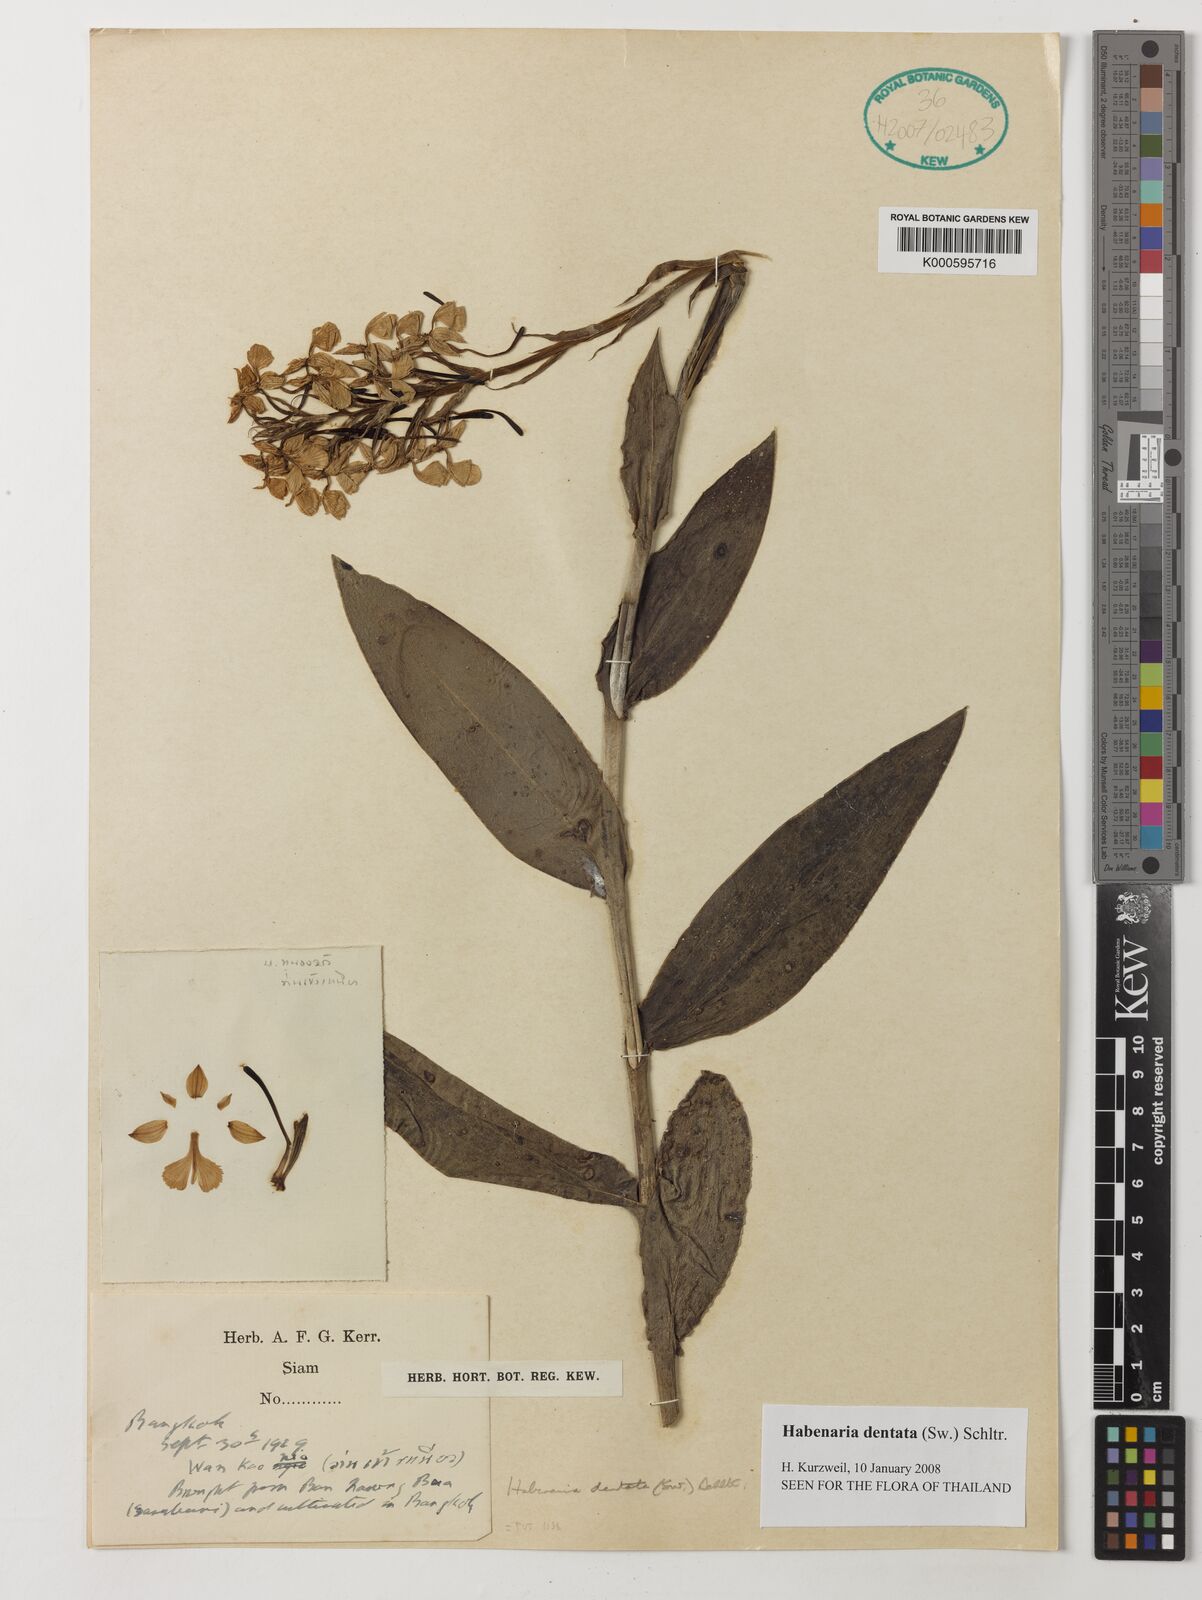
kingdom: Plantae
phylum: Tracheophyta
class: Liliopsida
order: Asparagales
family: Orchidaceae
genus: Habenaria
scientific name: Habenaria dentata
